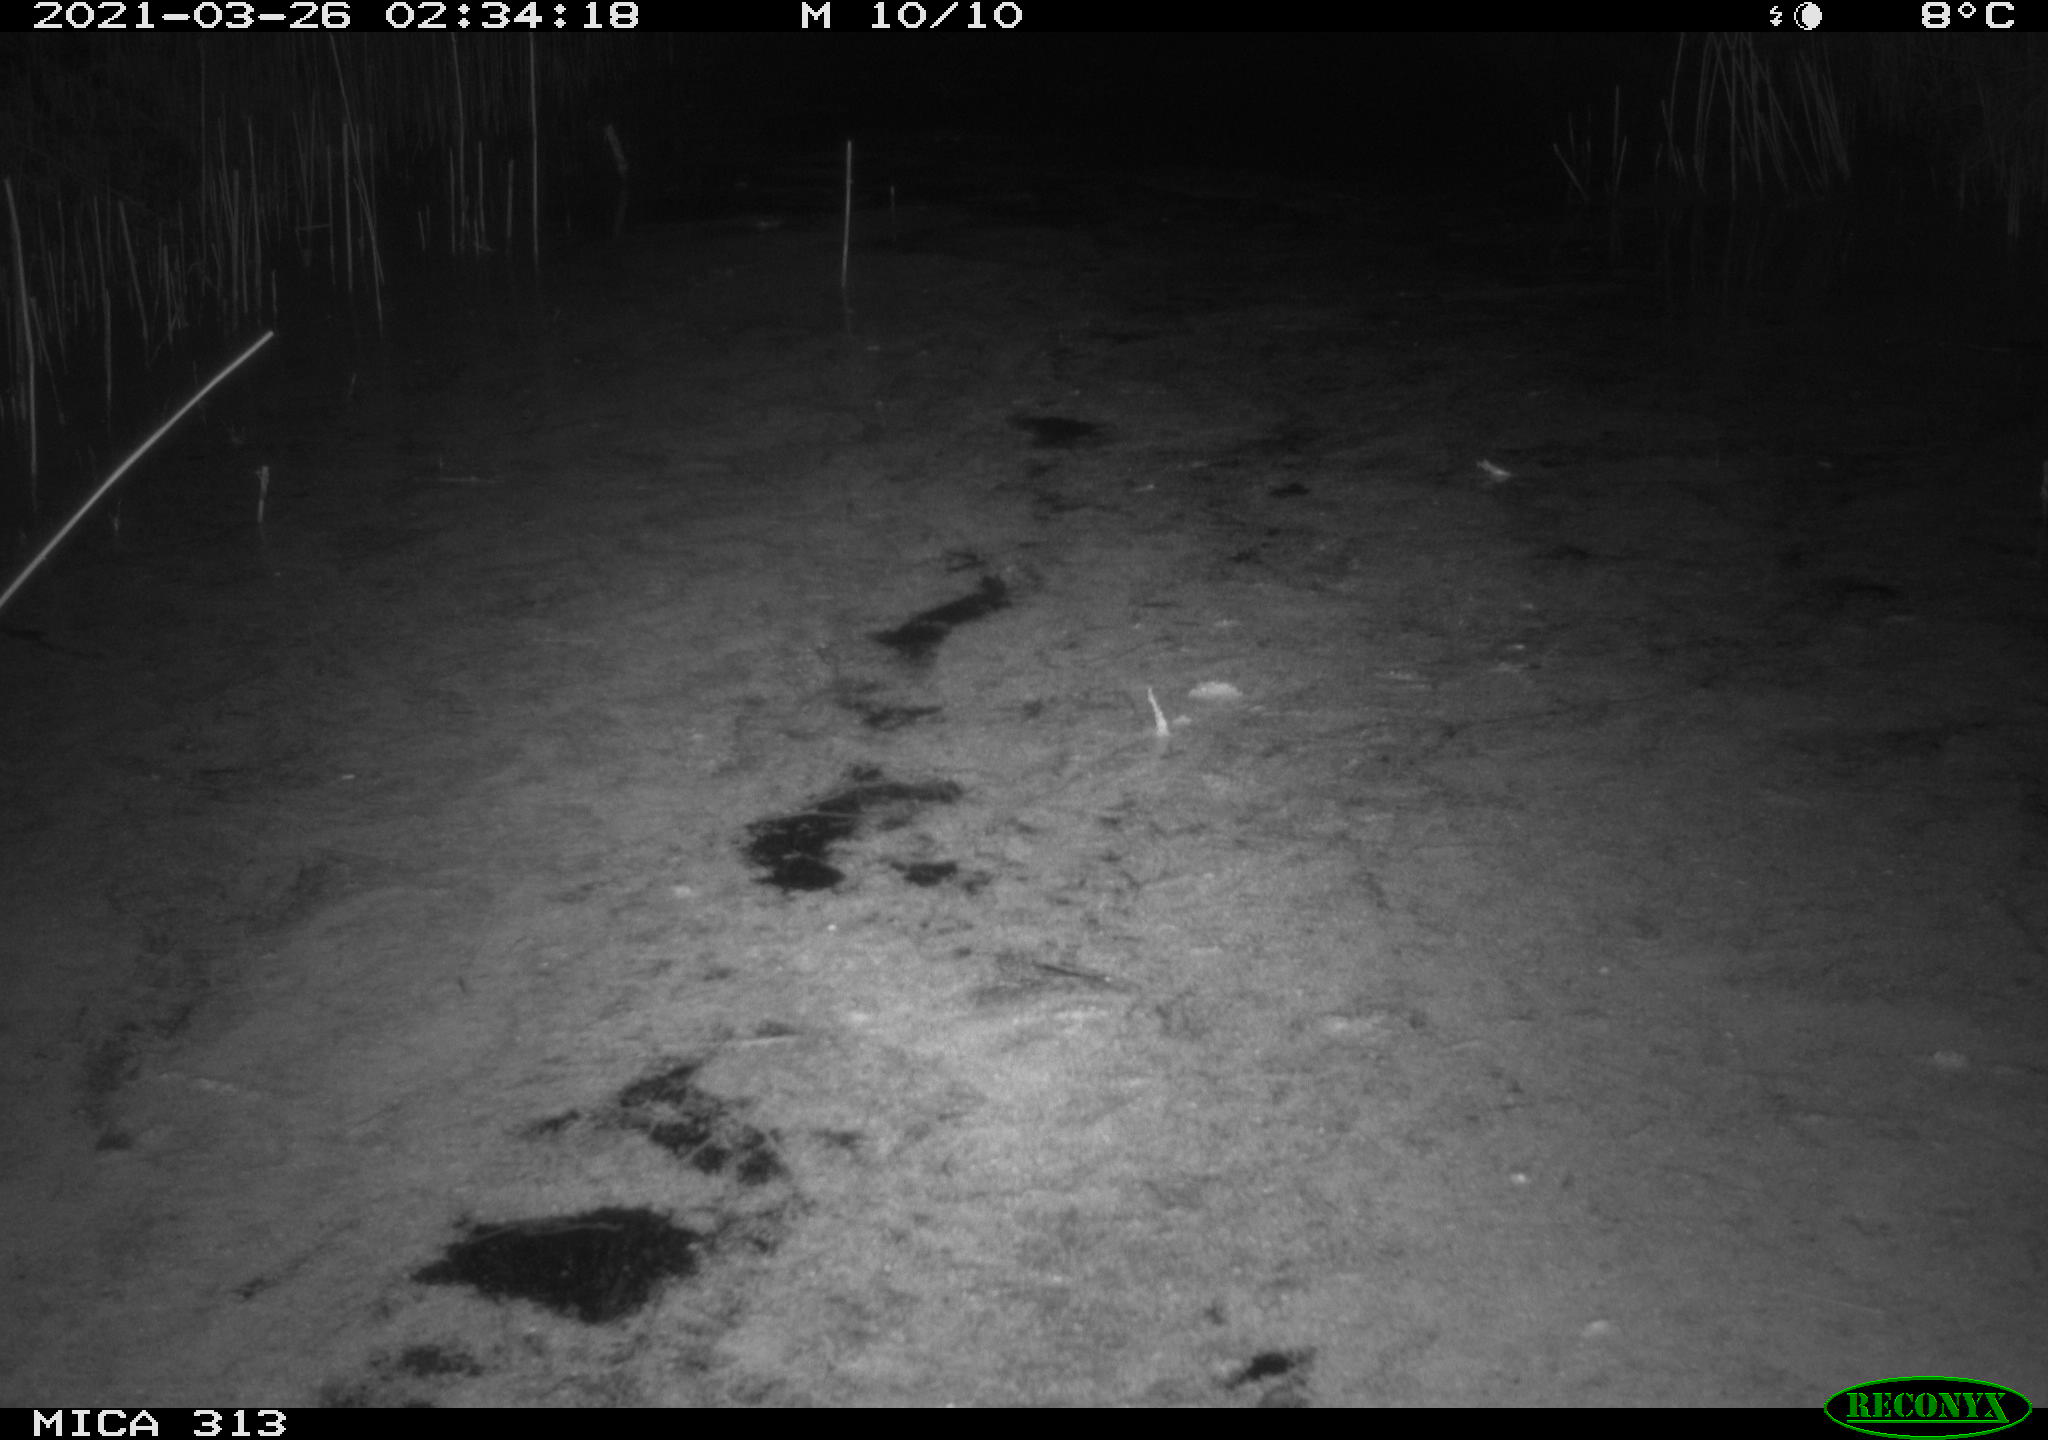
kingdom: Animalia
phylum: Chordata
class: Aves
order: Gruiformes
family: Rallidae
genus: Fulica
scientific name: Fulica atra
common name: Eurasian coot
